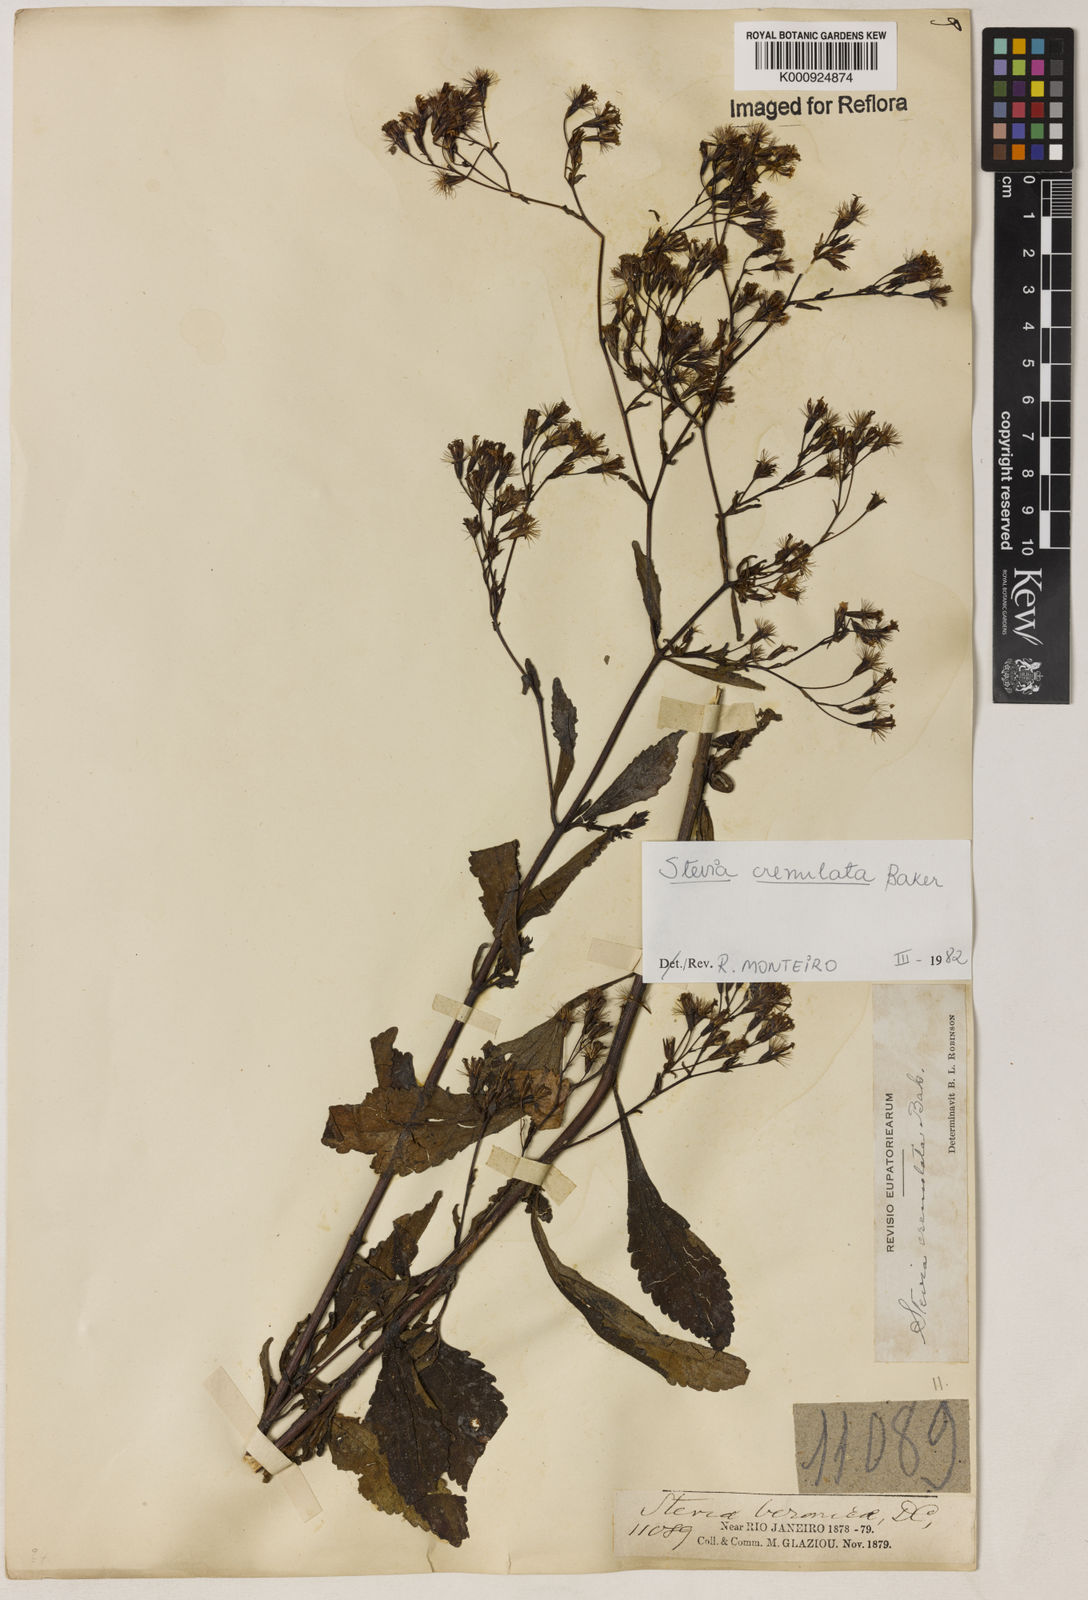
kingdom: Plantae
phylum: Tracheophyta
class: Magnoliopsida
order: Asterales
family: Asteraceae
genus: Stevia
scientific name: Stevia crenulata
